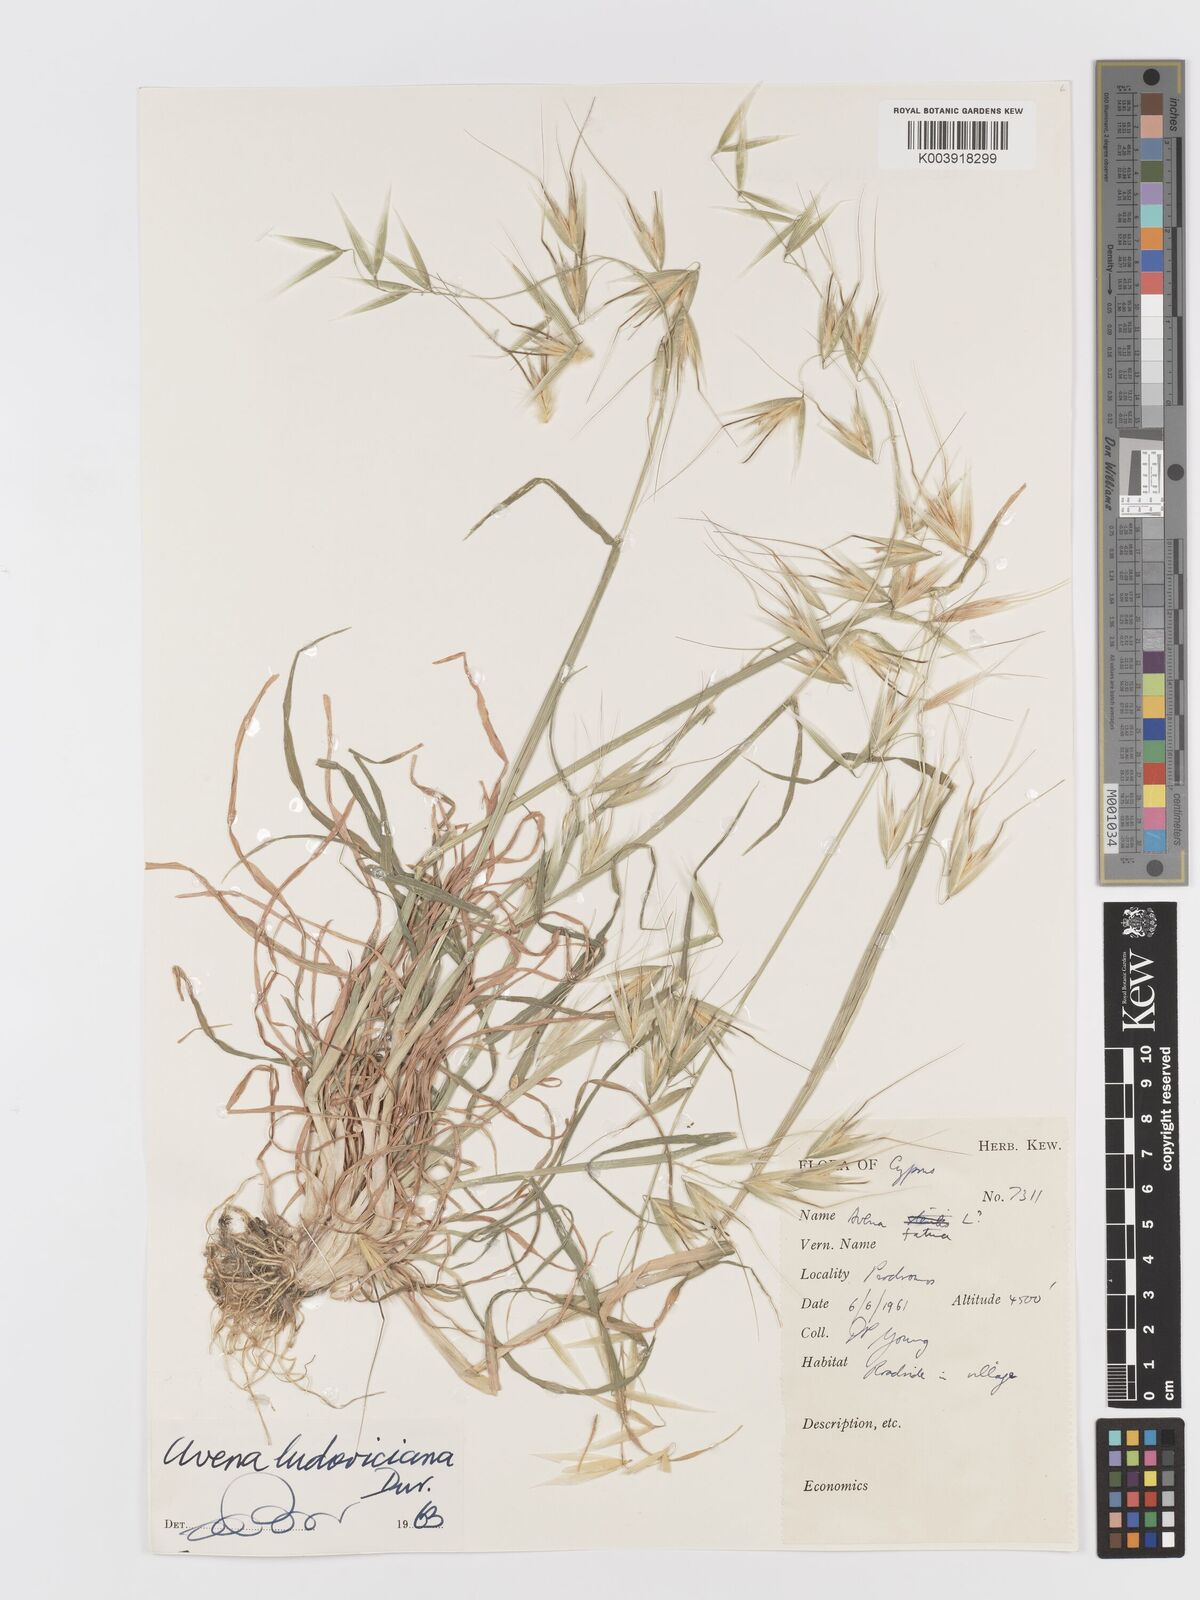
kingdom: Plantae
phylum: Tracheophyta
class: Liliopsida
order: Poales
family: Poaceae
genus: Avena
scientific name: Avena sterilis
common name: Animated oat
